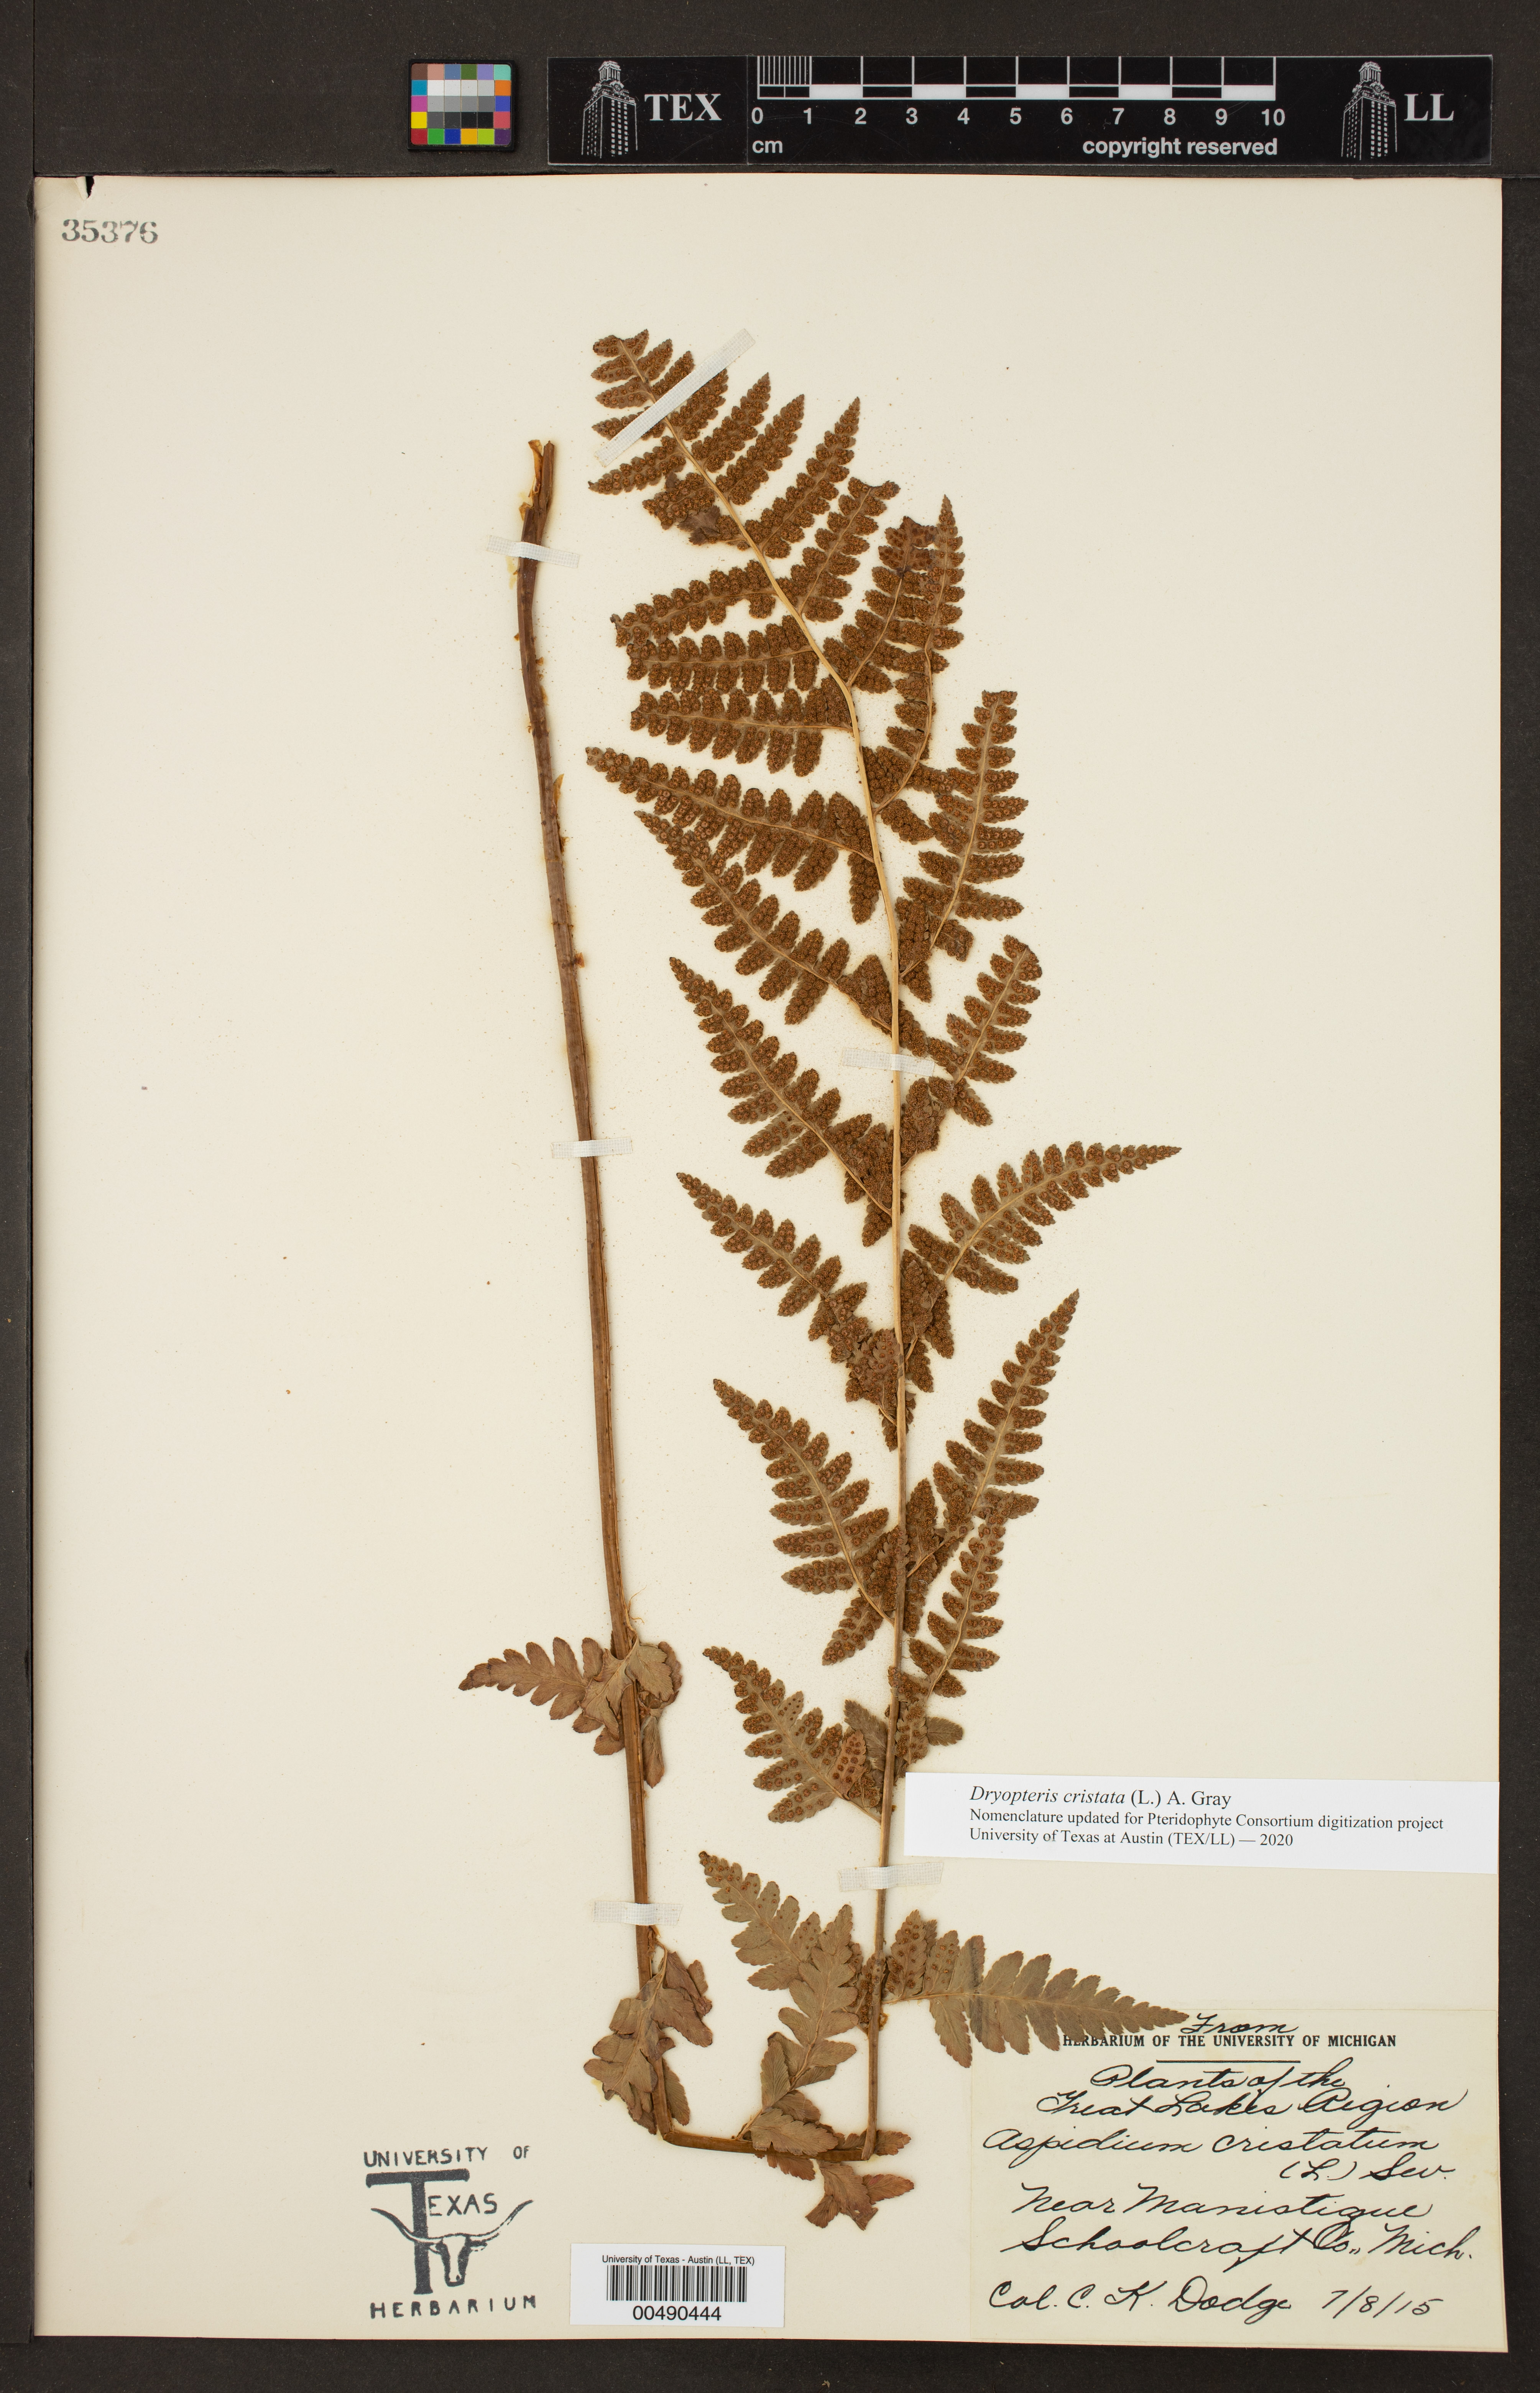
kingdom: Plantae
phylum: Tracheophyta
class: Polypodiopsida
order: Polypodiales
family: Dryopteridaceae
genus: Dryopteris
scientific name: Dryopteris cristata
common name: Crested wood fern
